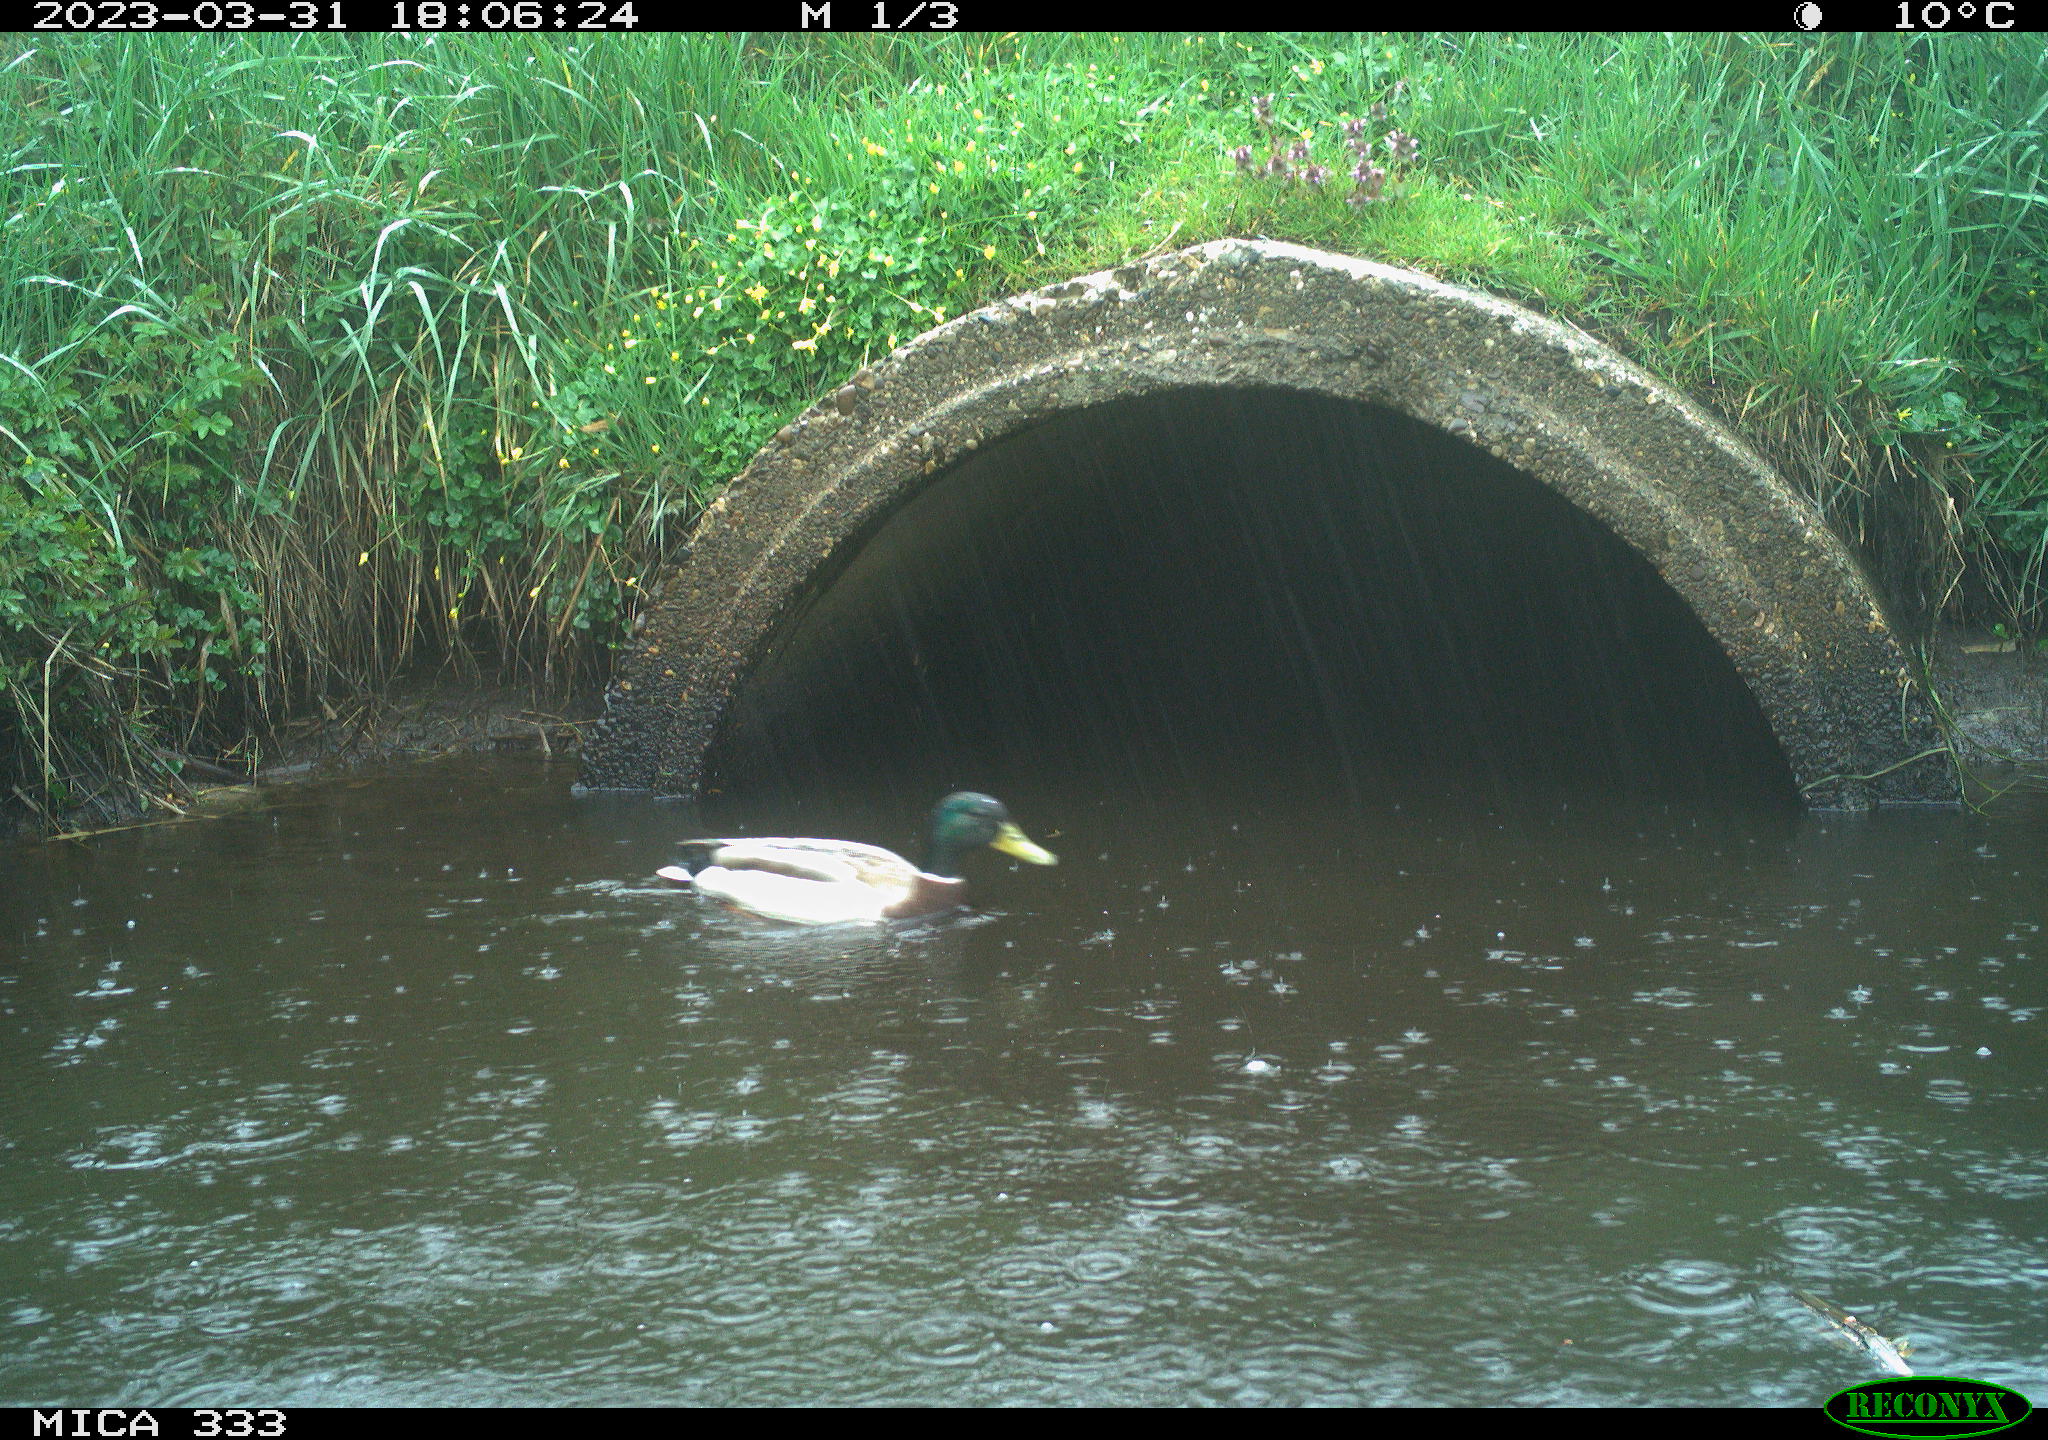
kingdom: Animalia
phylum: Chordata
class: Aves
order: Anseriformes
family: Anatidae
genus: Anas
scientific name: Anas
